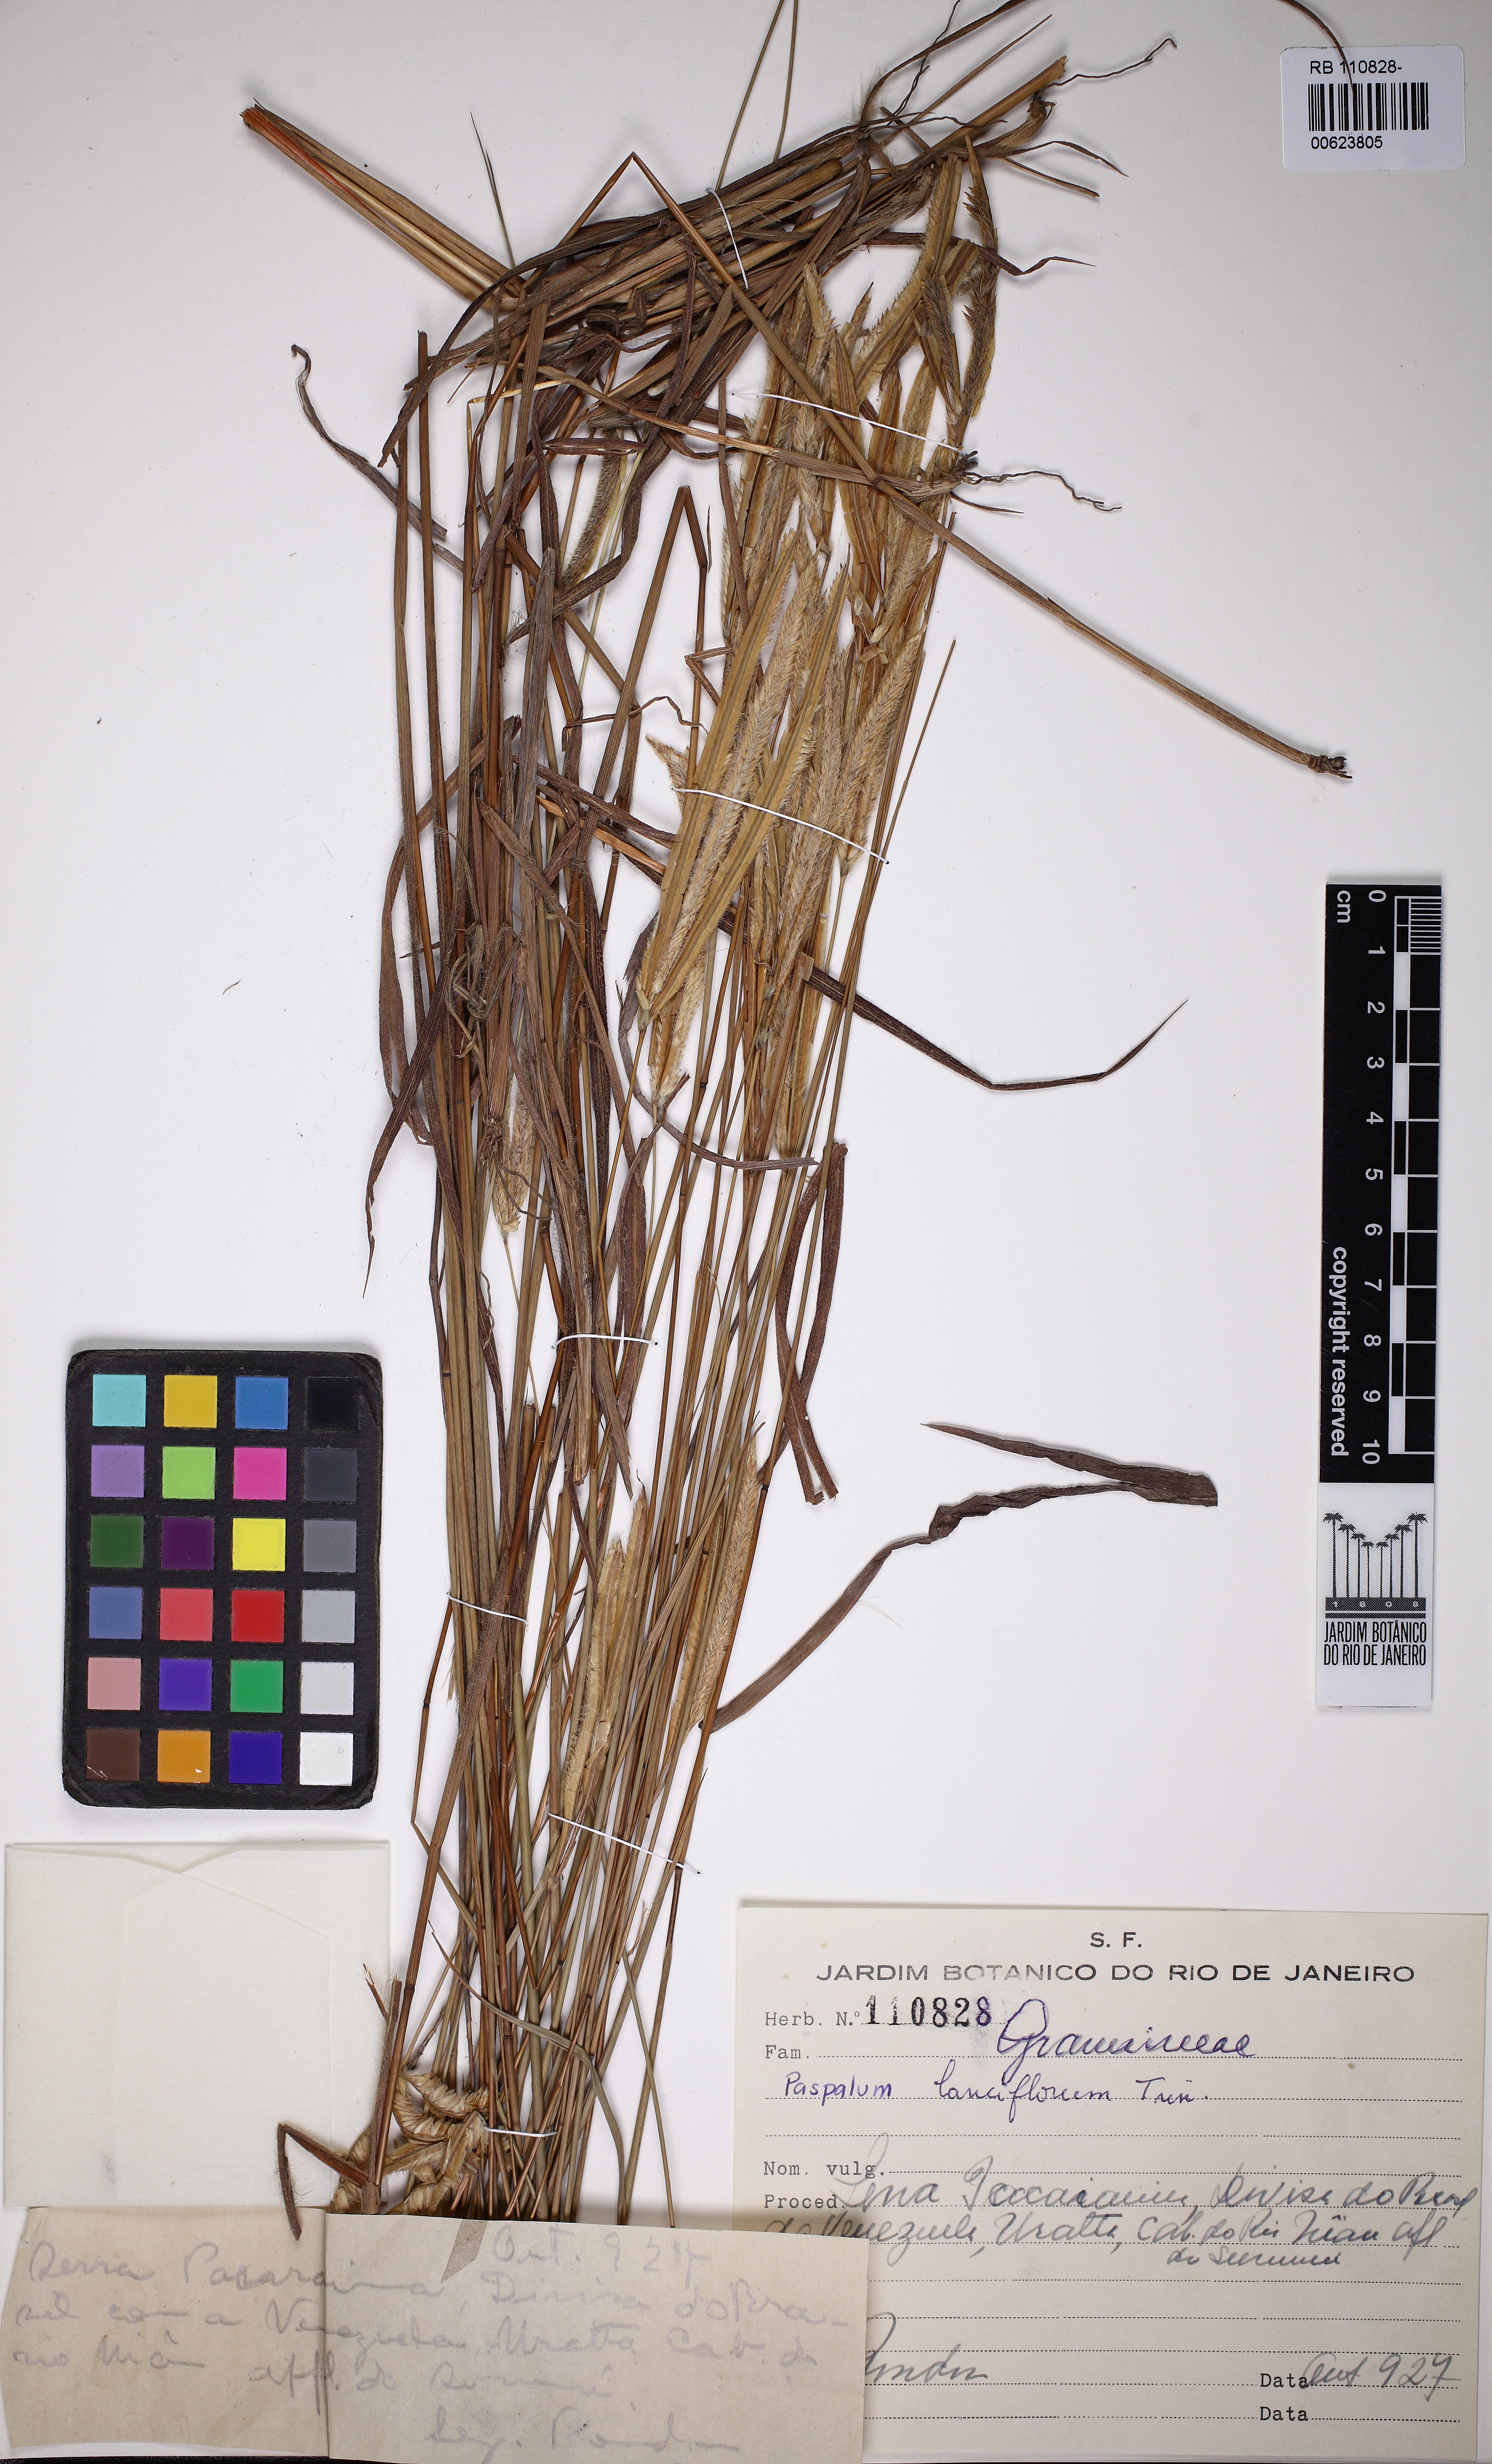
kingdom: Plantae
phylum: Tracheophyta
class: Liliopsida
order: Poales
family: Poaceae
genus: Paspalum
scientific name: Paspalum lanciflorum
